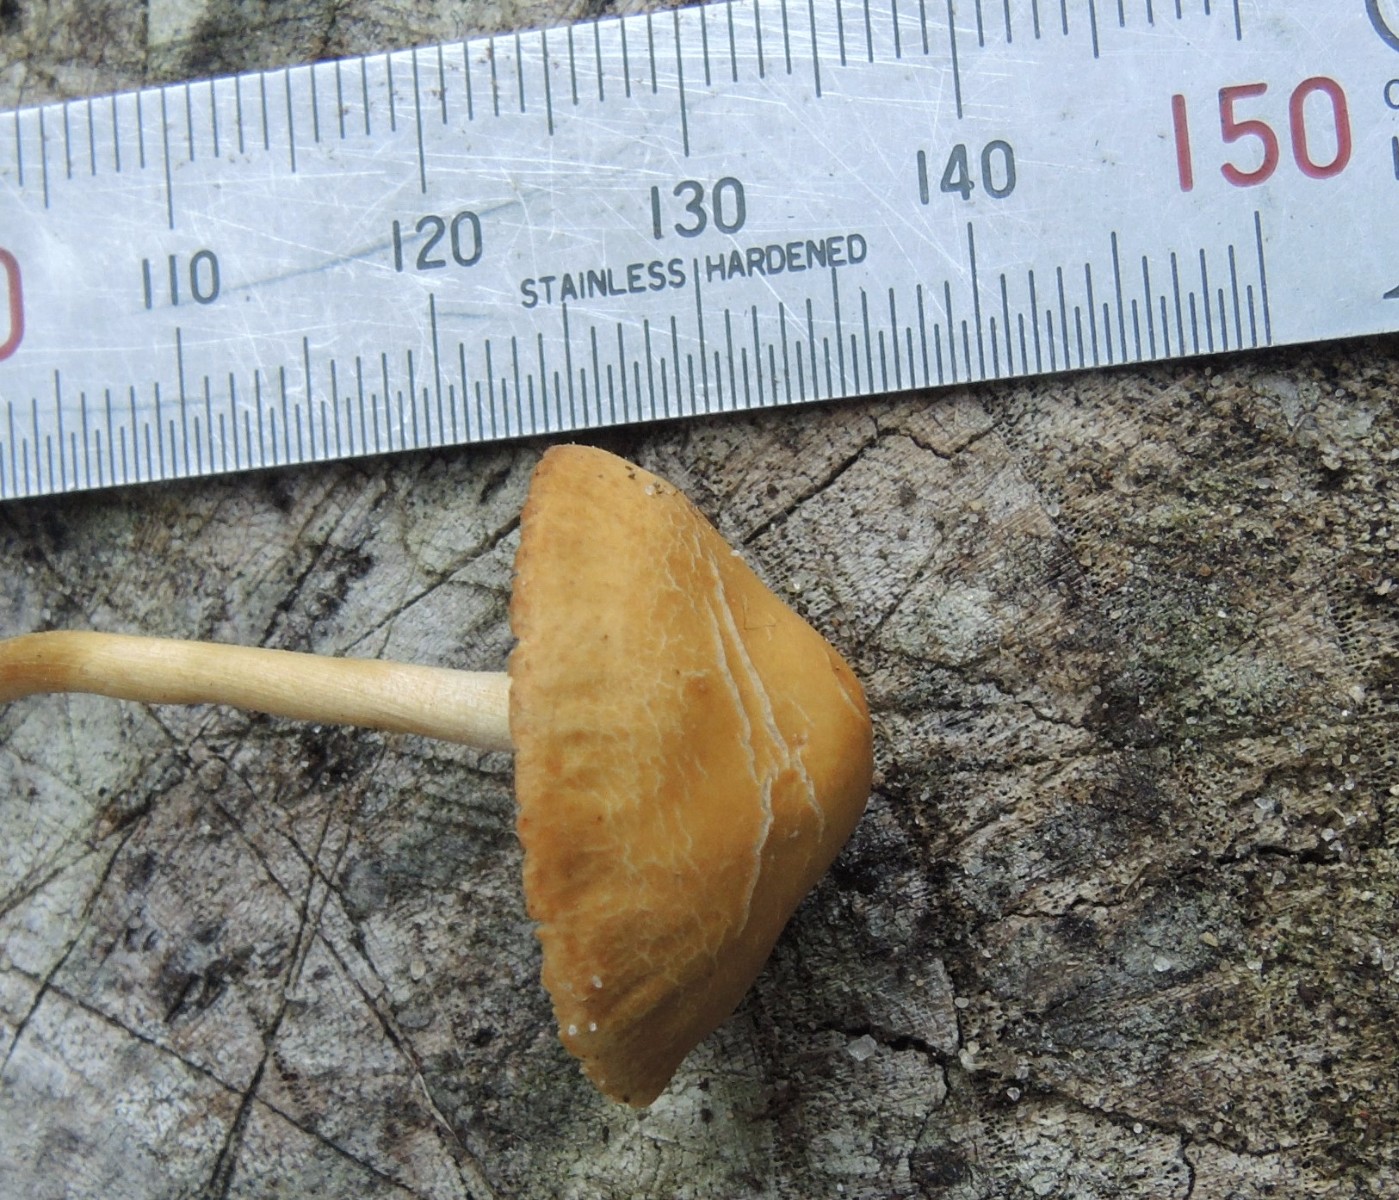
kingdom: Fungi
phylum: Basidiomycota
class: Agaricomycetes
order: Agaricales
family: Strophariaceae
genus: Agrocybe
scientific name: Agrocybe arvalis
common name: rodslående agerhat
